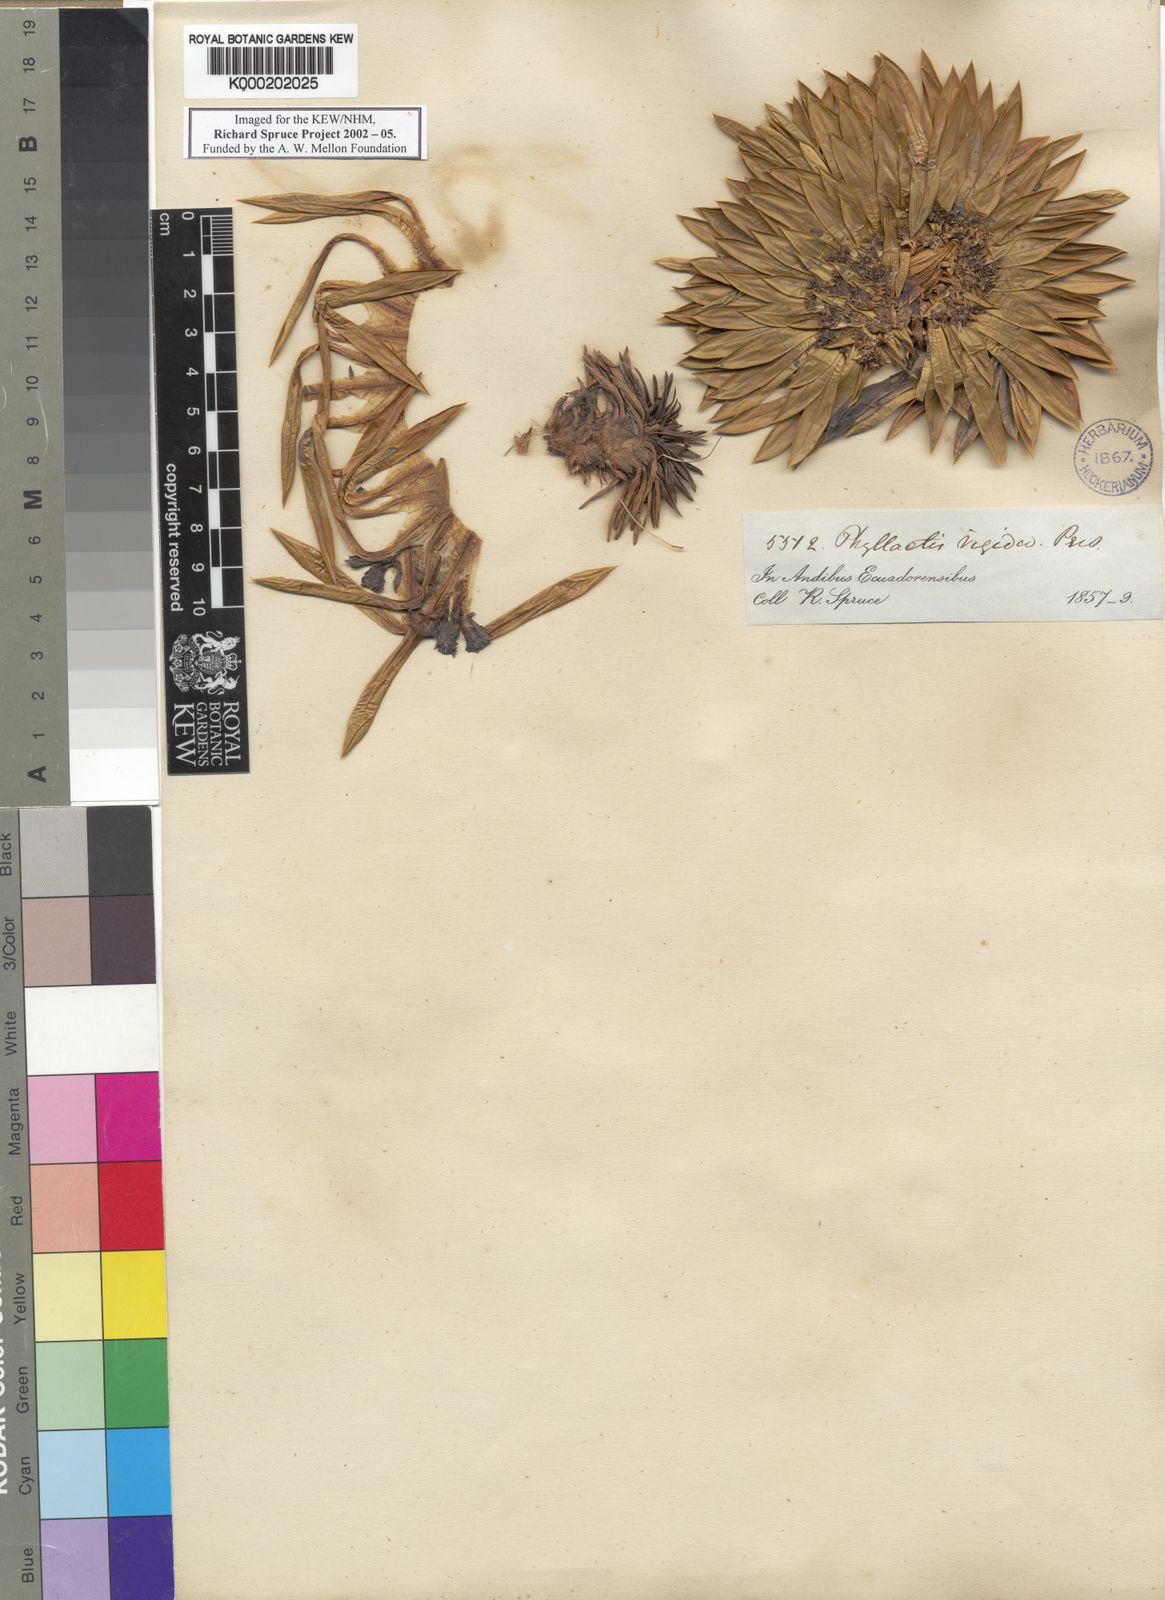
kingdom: Plantae
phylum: Tracheophyta
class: Magnoliopsida
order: Dipsacales
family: Caprifoliaceae
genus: Valeriana
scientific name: Valeriana rigida
